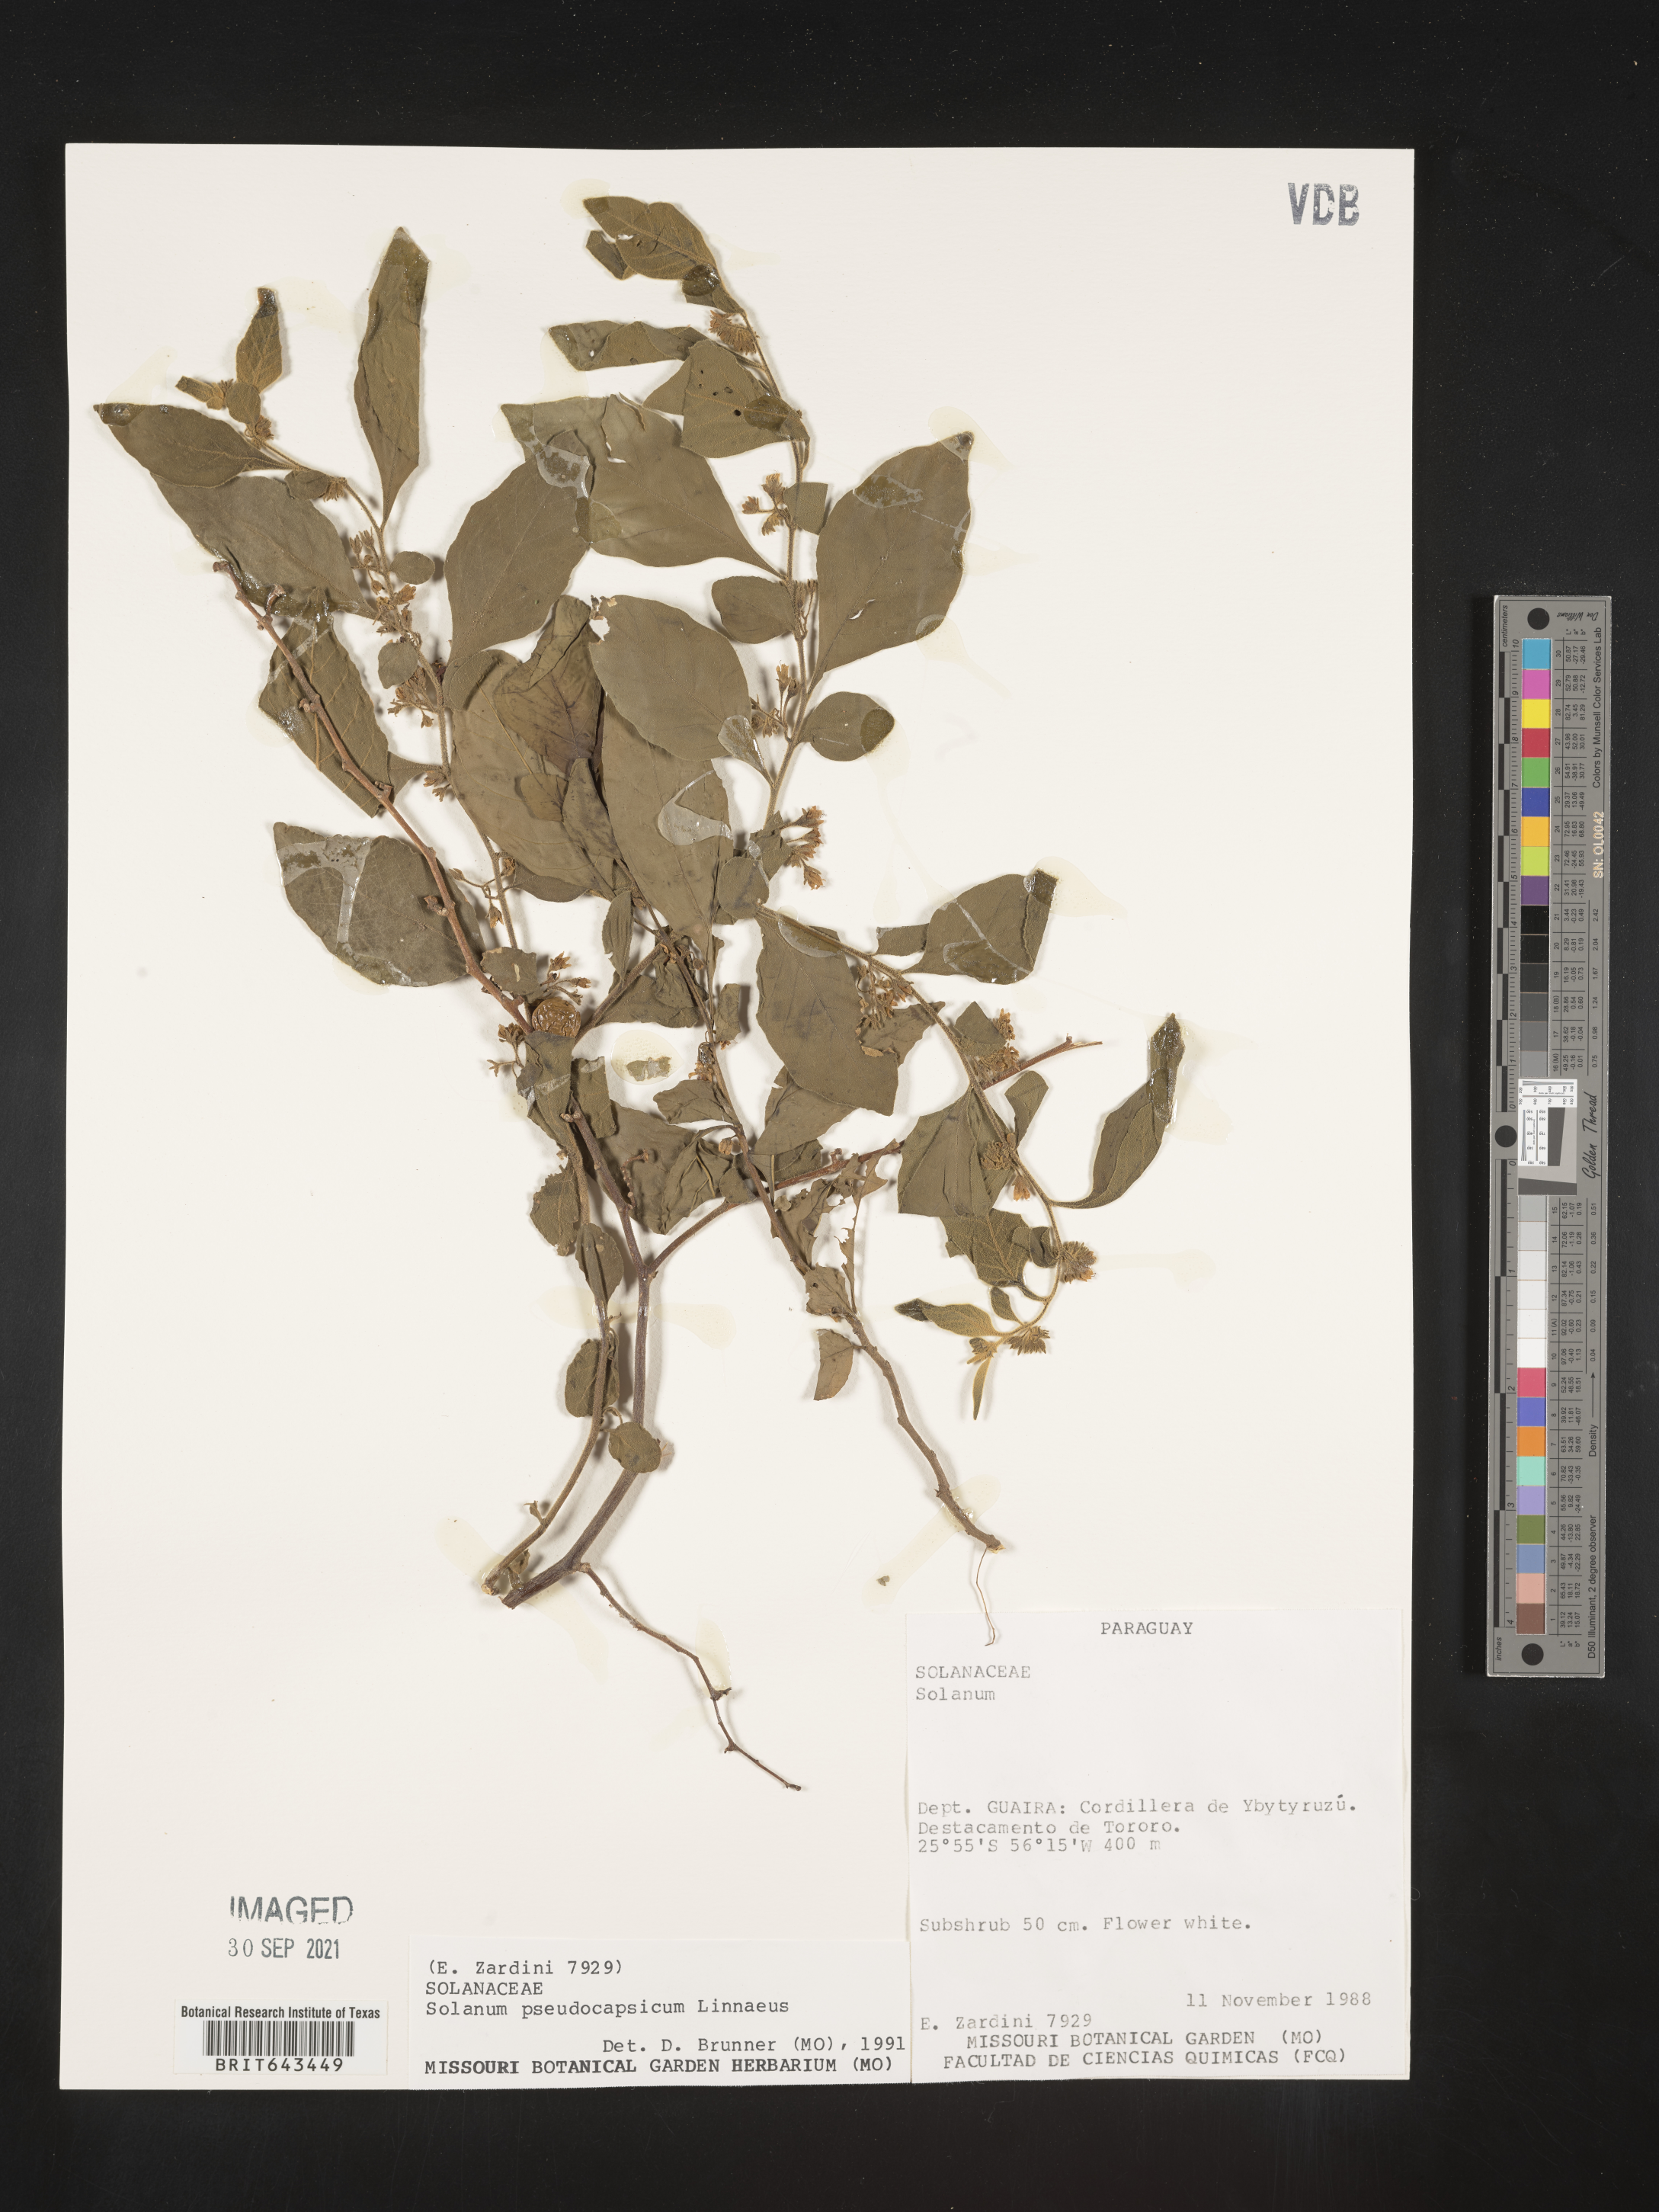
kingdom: Plantae
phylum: Tracheophyta
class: Magnoliopsida
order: Solanales
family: Solanaceae
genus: Solanum
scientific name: Solanum
